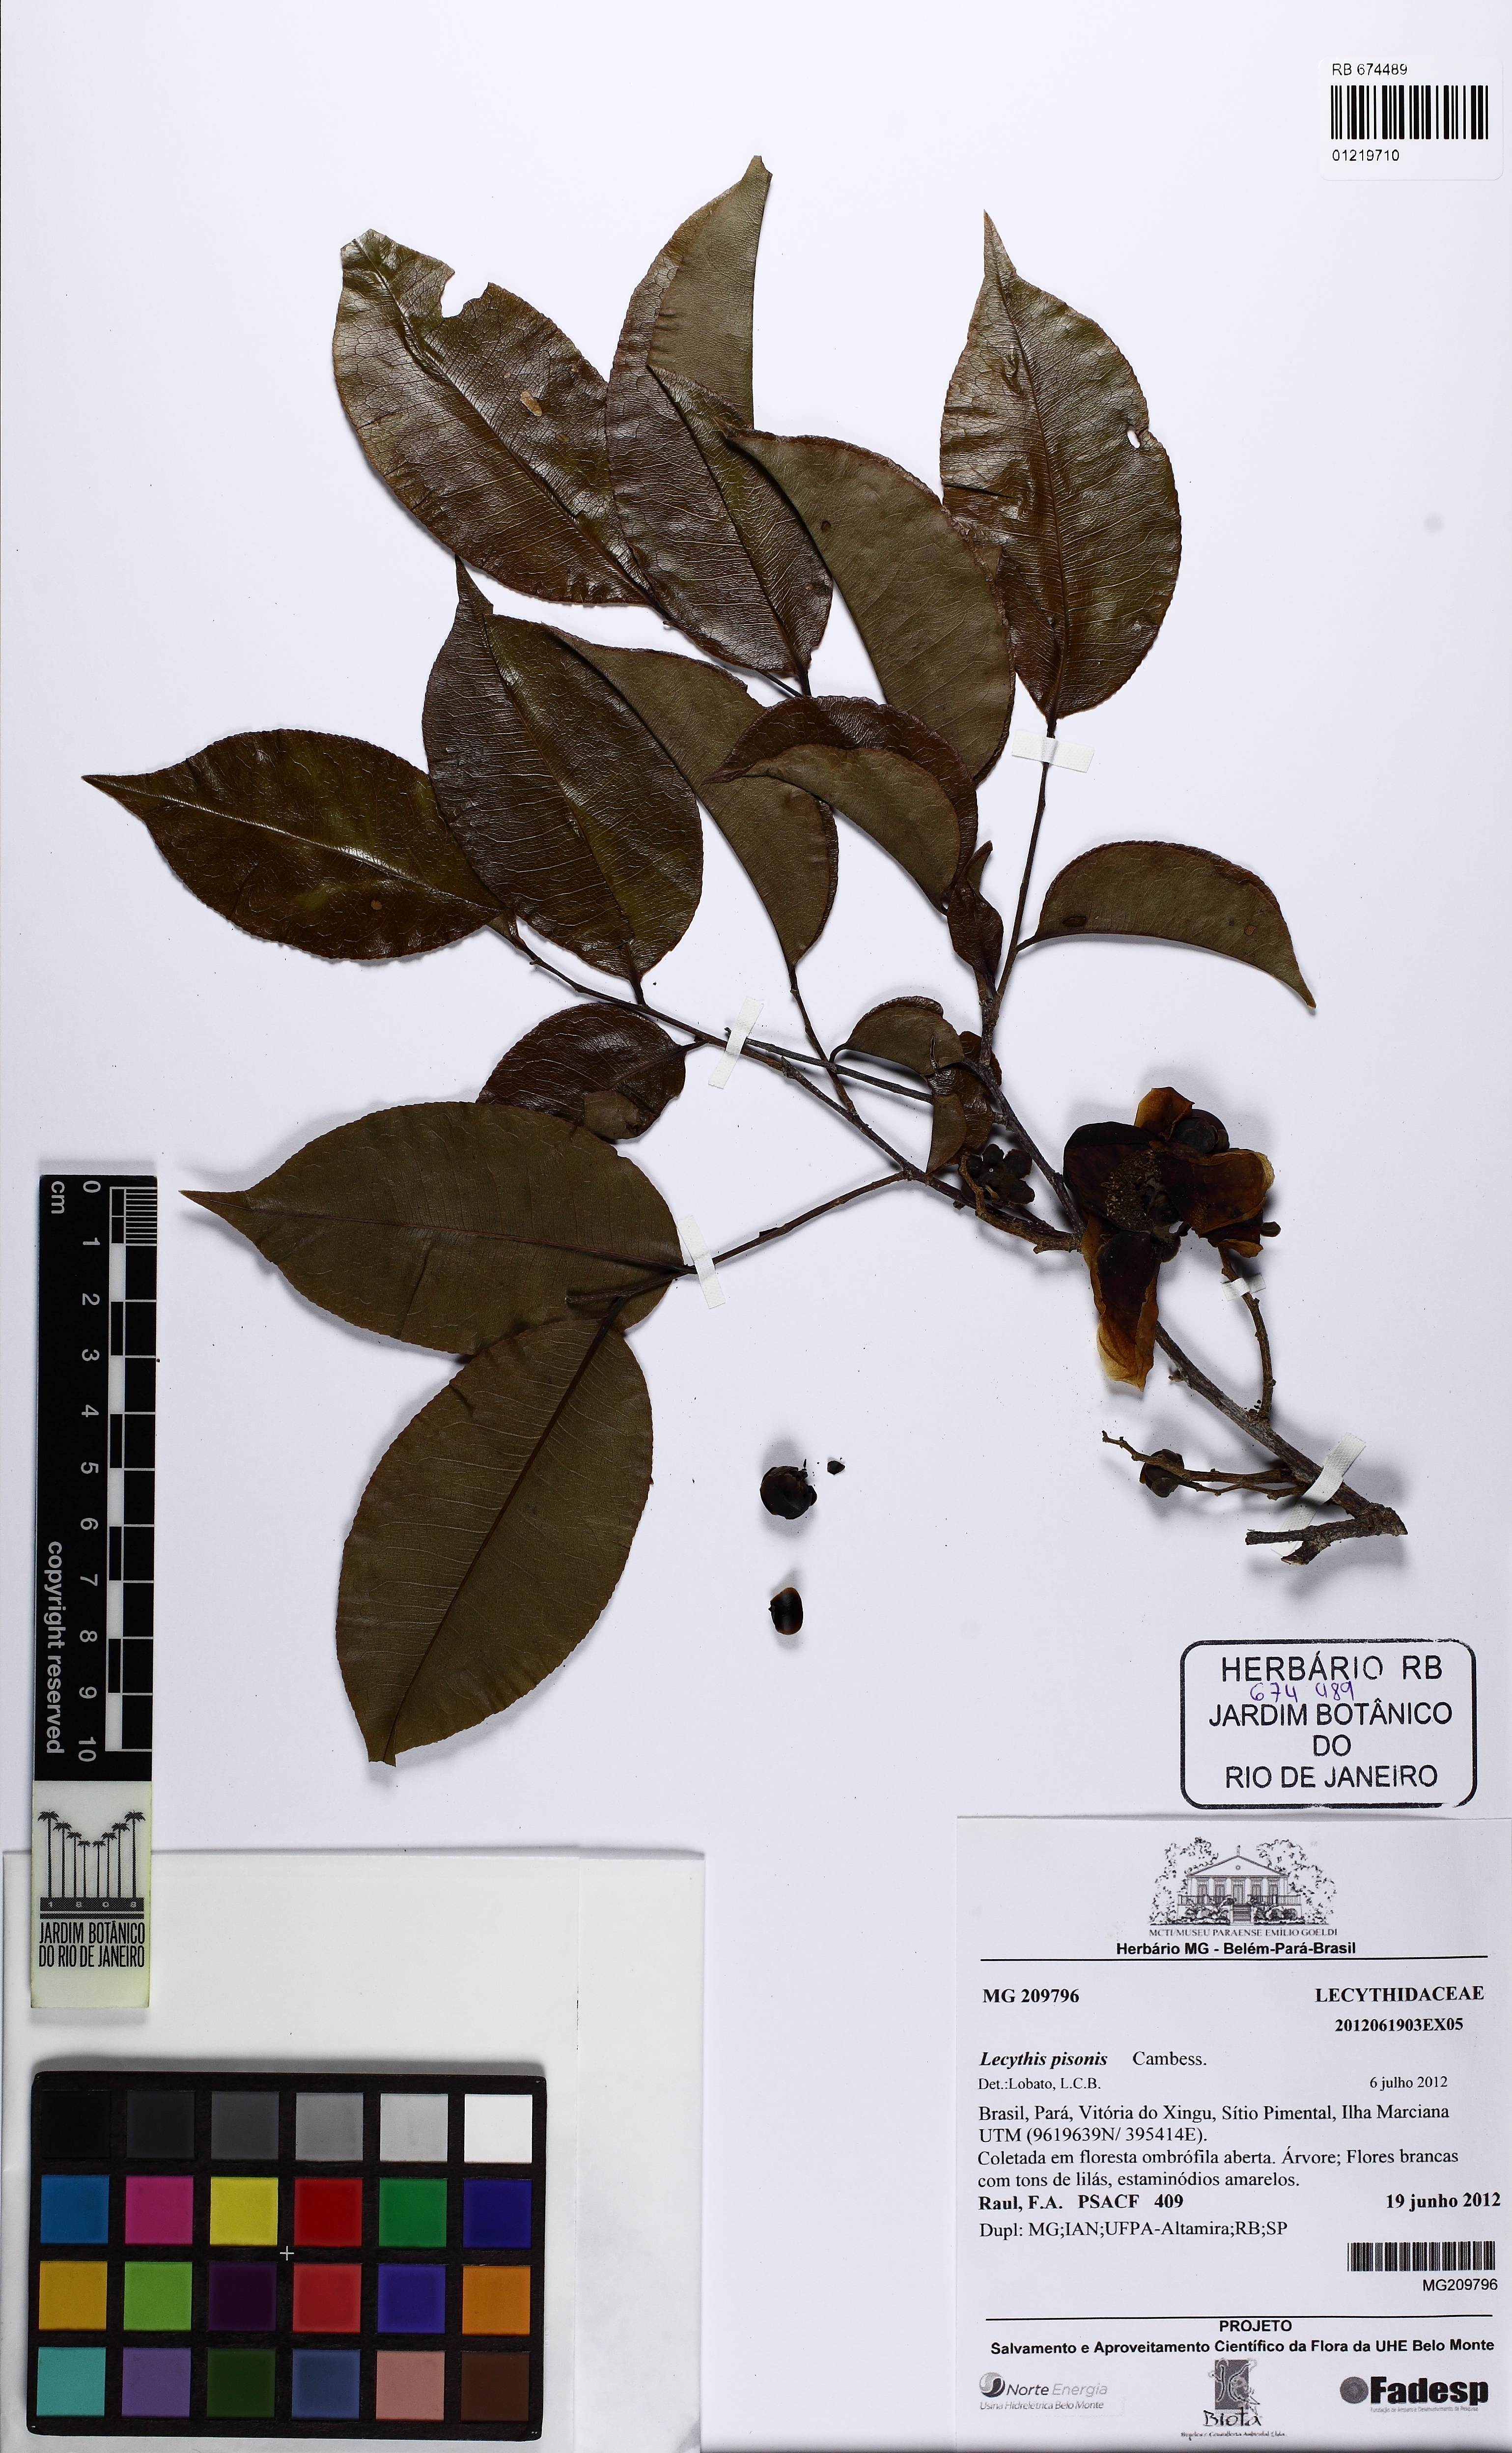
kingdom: Plantae
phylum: Tracheophyta
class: Magnoliopsida
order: Ericales
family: Lecythidaceae
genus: Lecythis
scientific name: Lecythis pisonis
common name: Paradise-nut
